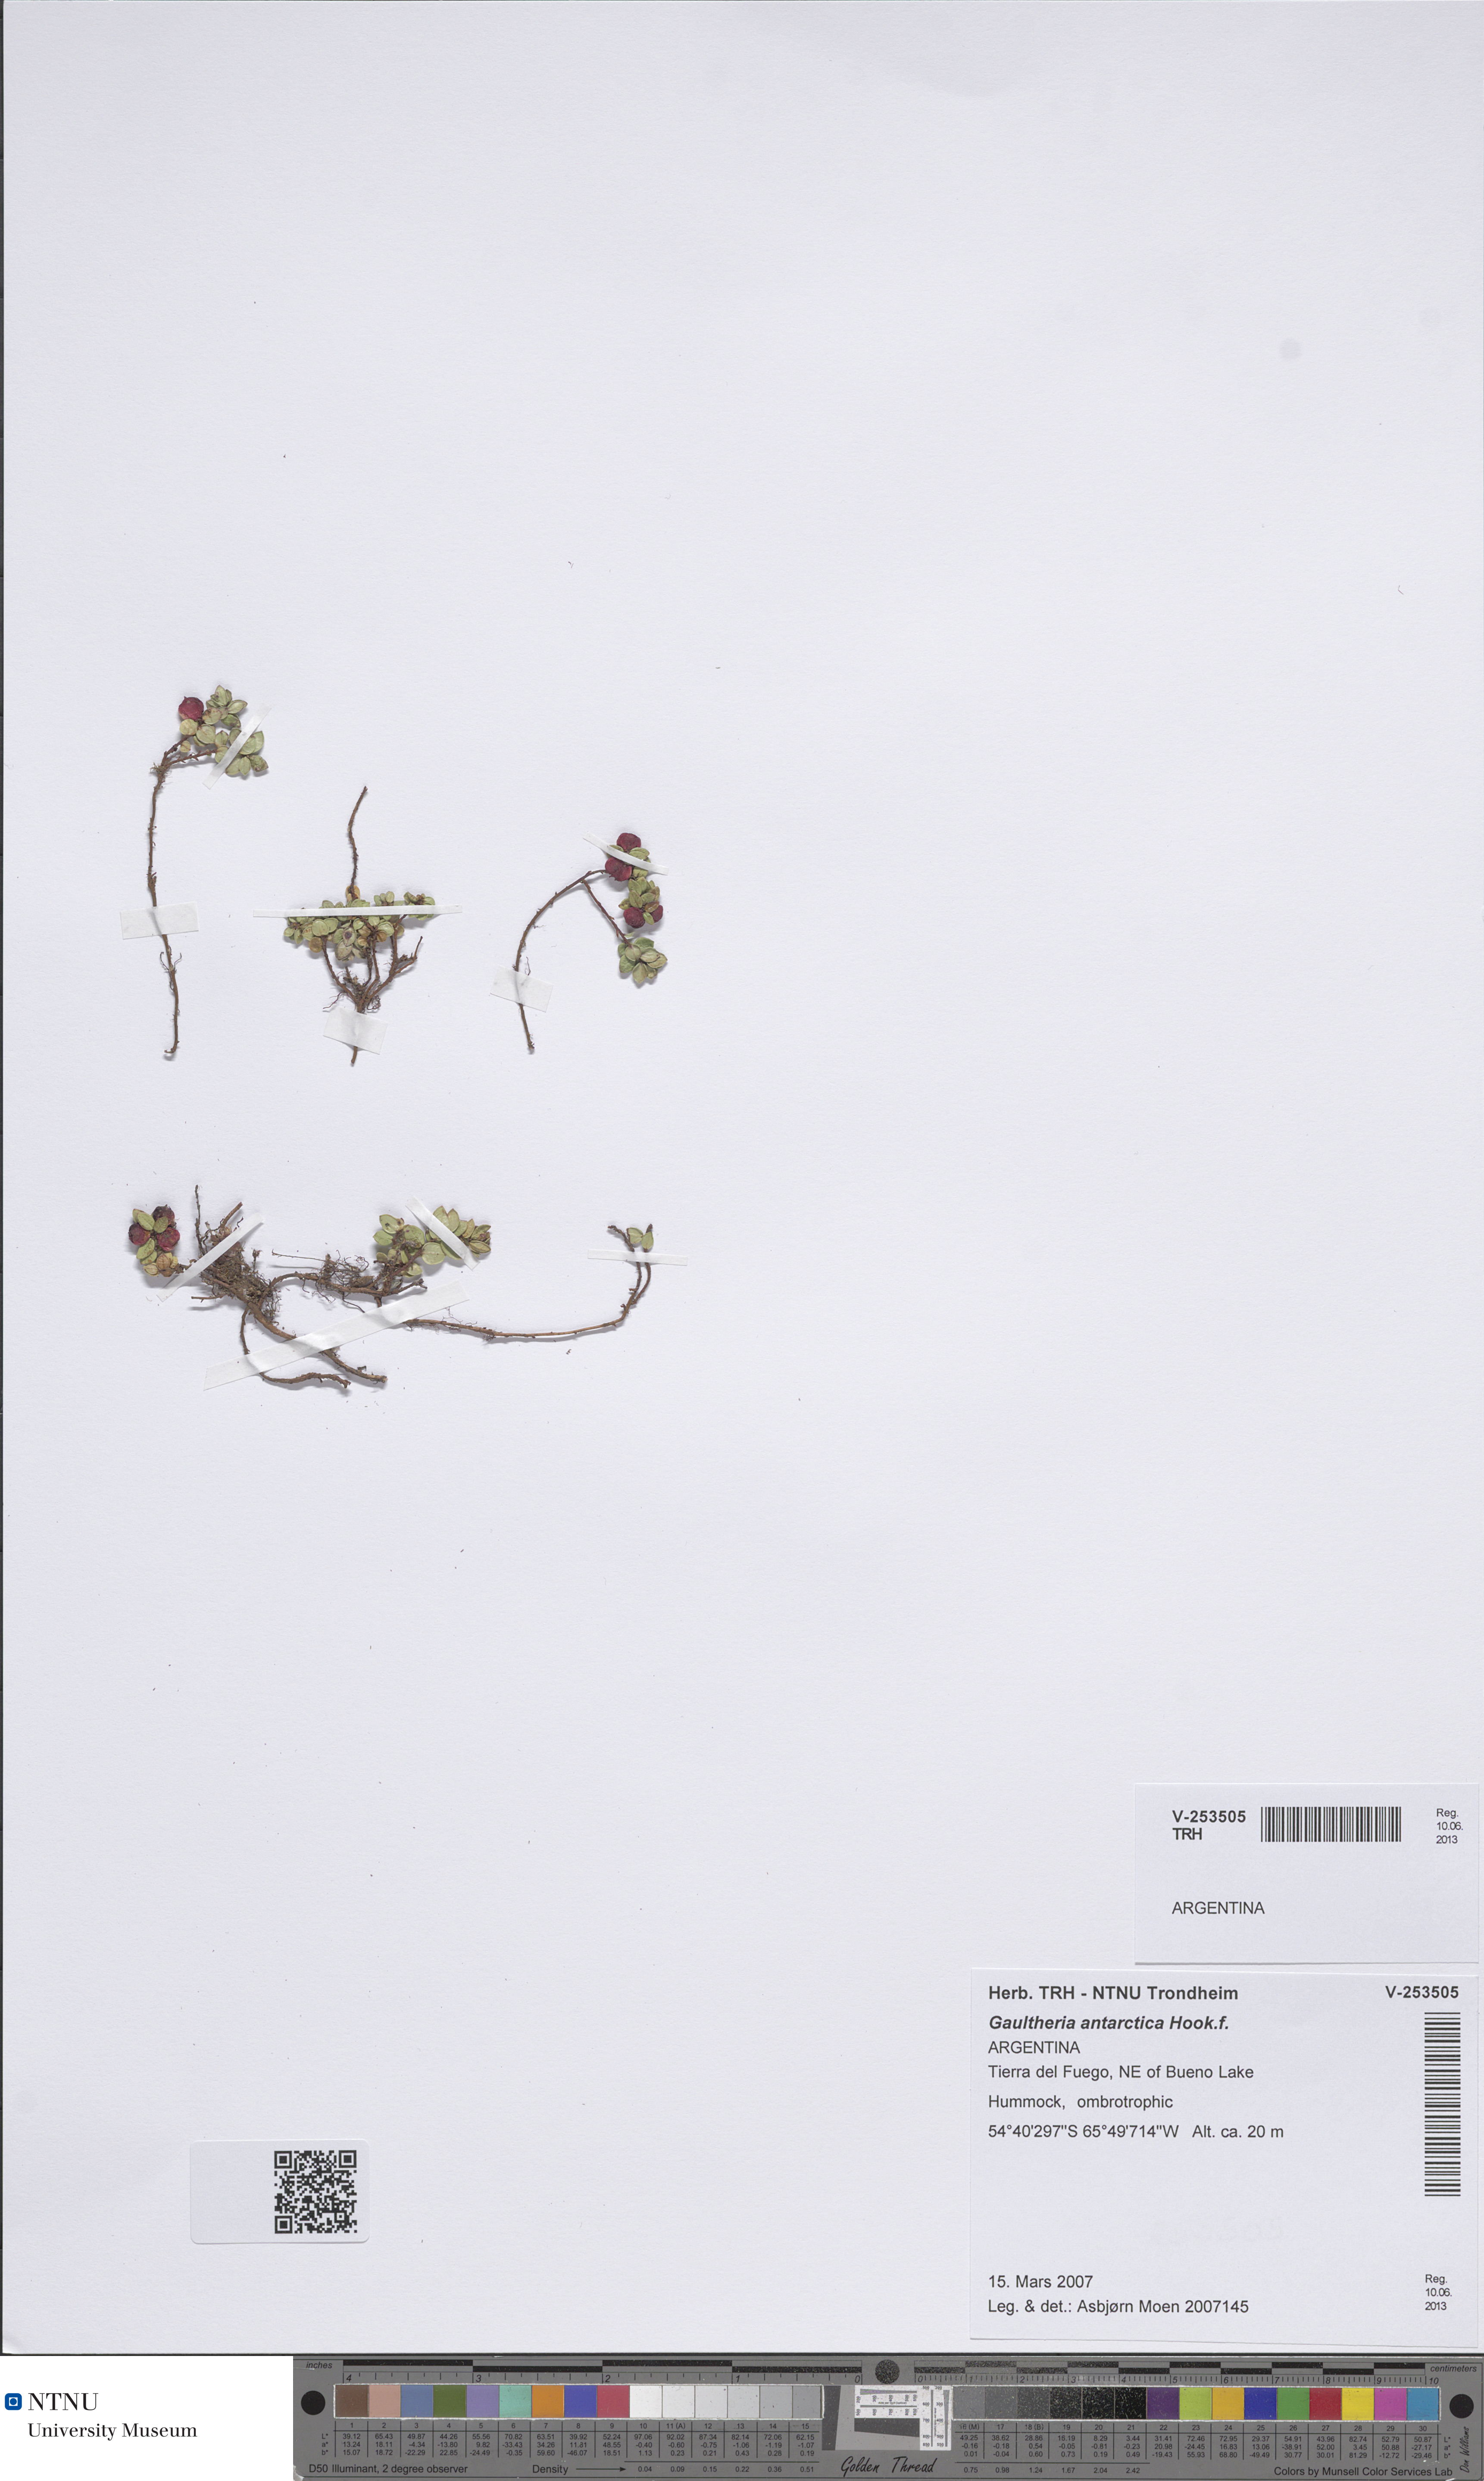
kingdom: Plantae
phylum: Tracheophyta
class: Magnoliopsida
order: Ericales
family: Ericaceae
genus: Gaultheria
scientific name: Gaultheria antarctica
